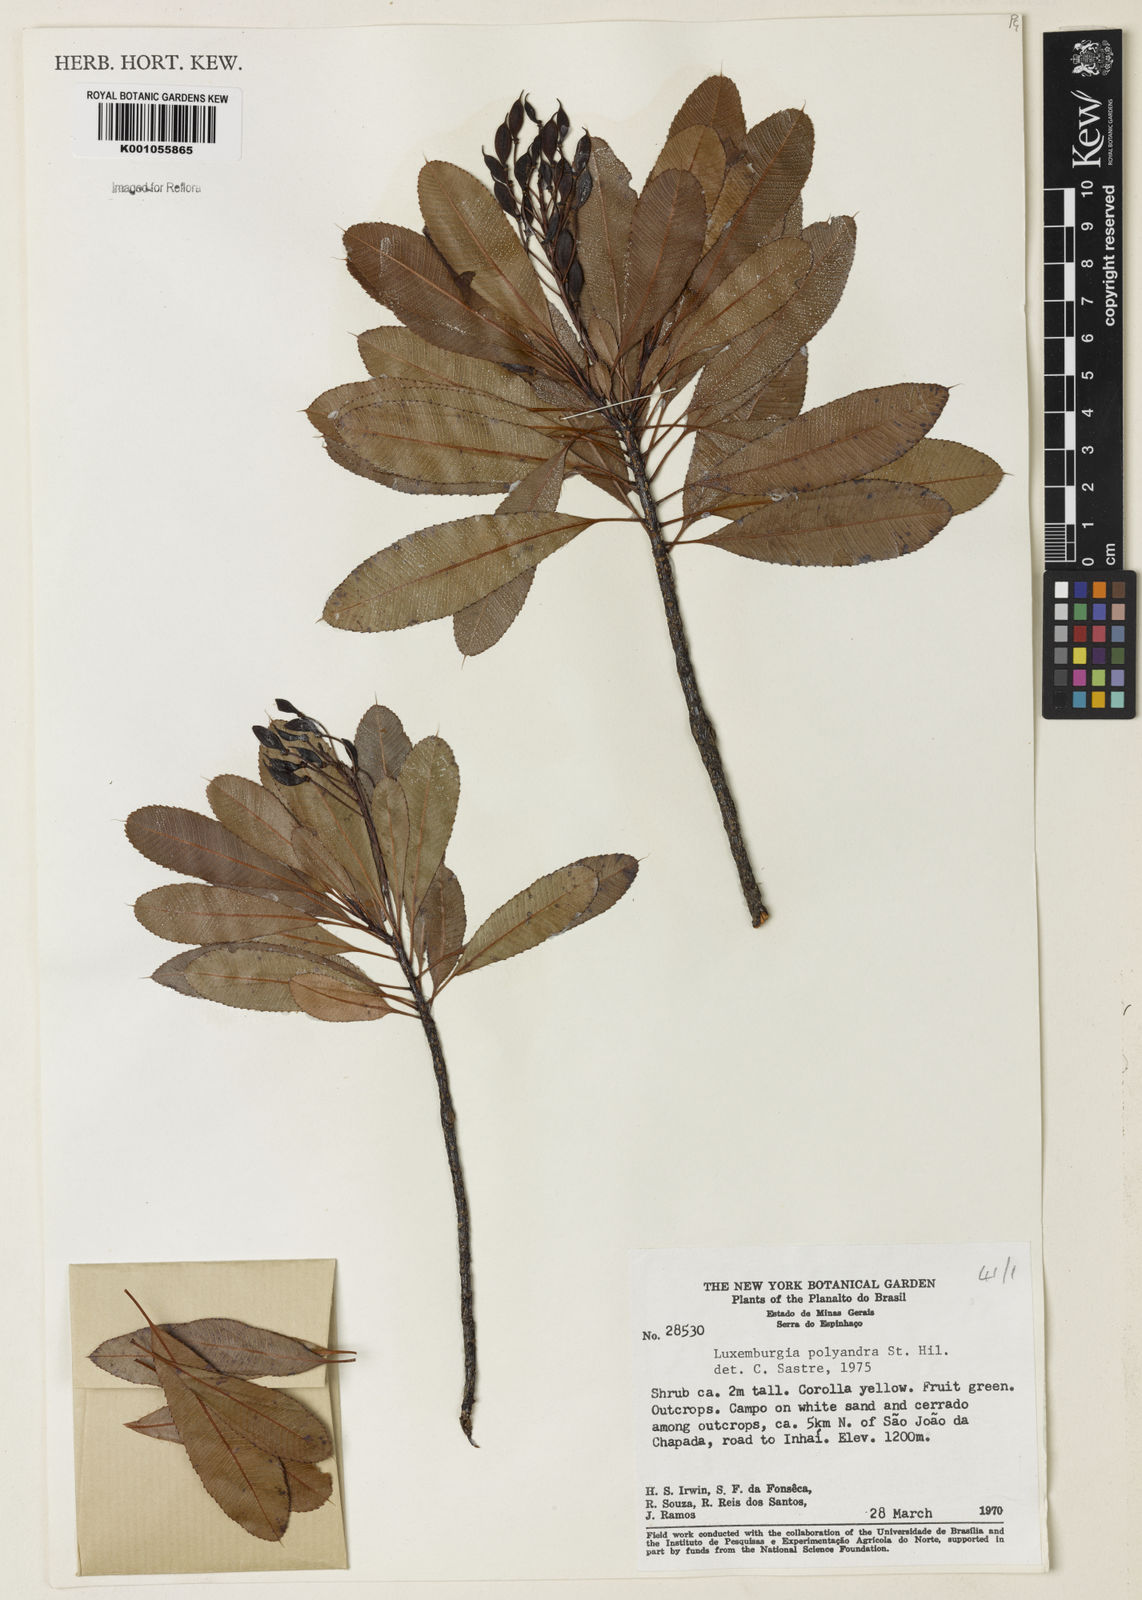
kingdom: Plantae
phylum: Tracheophyta
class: Magnoliopsida
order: Malpighiales
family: Ochnaceae
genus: Luxemburgia
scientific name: Luxemburgia polyandra
